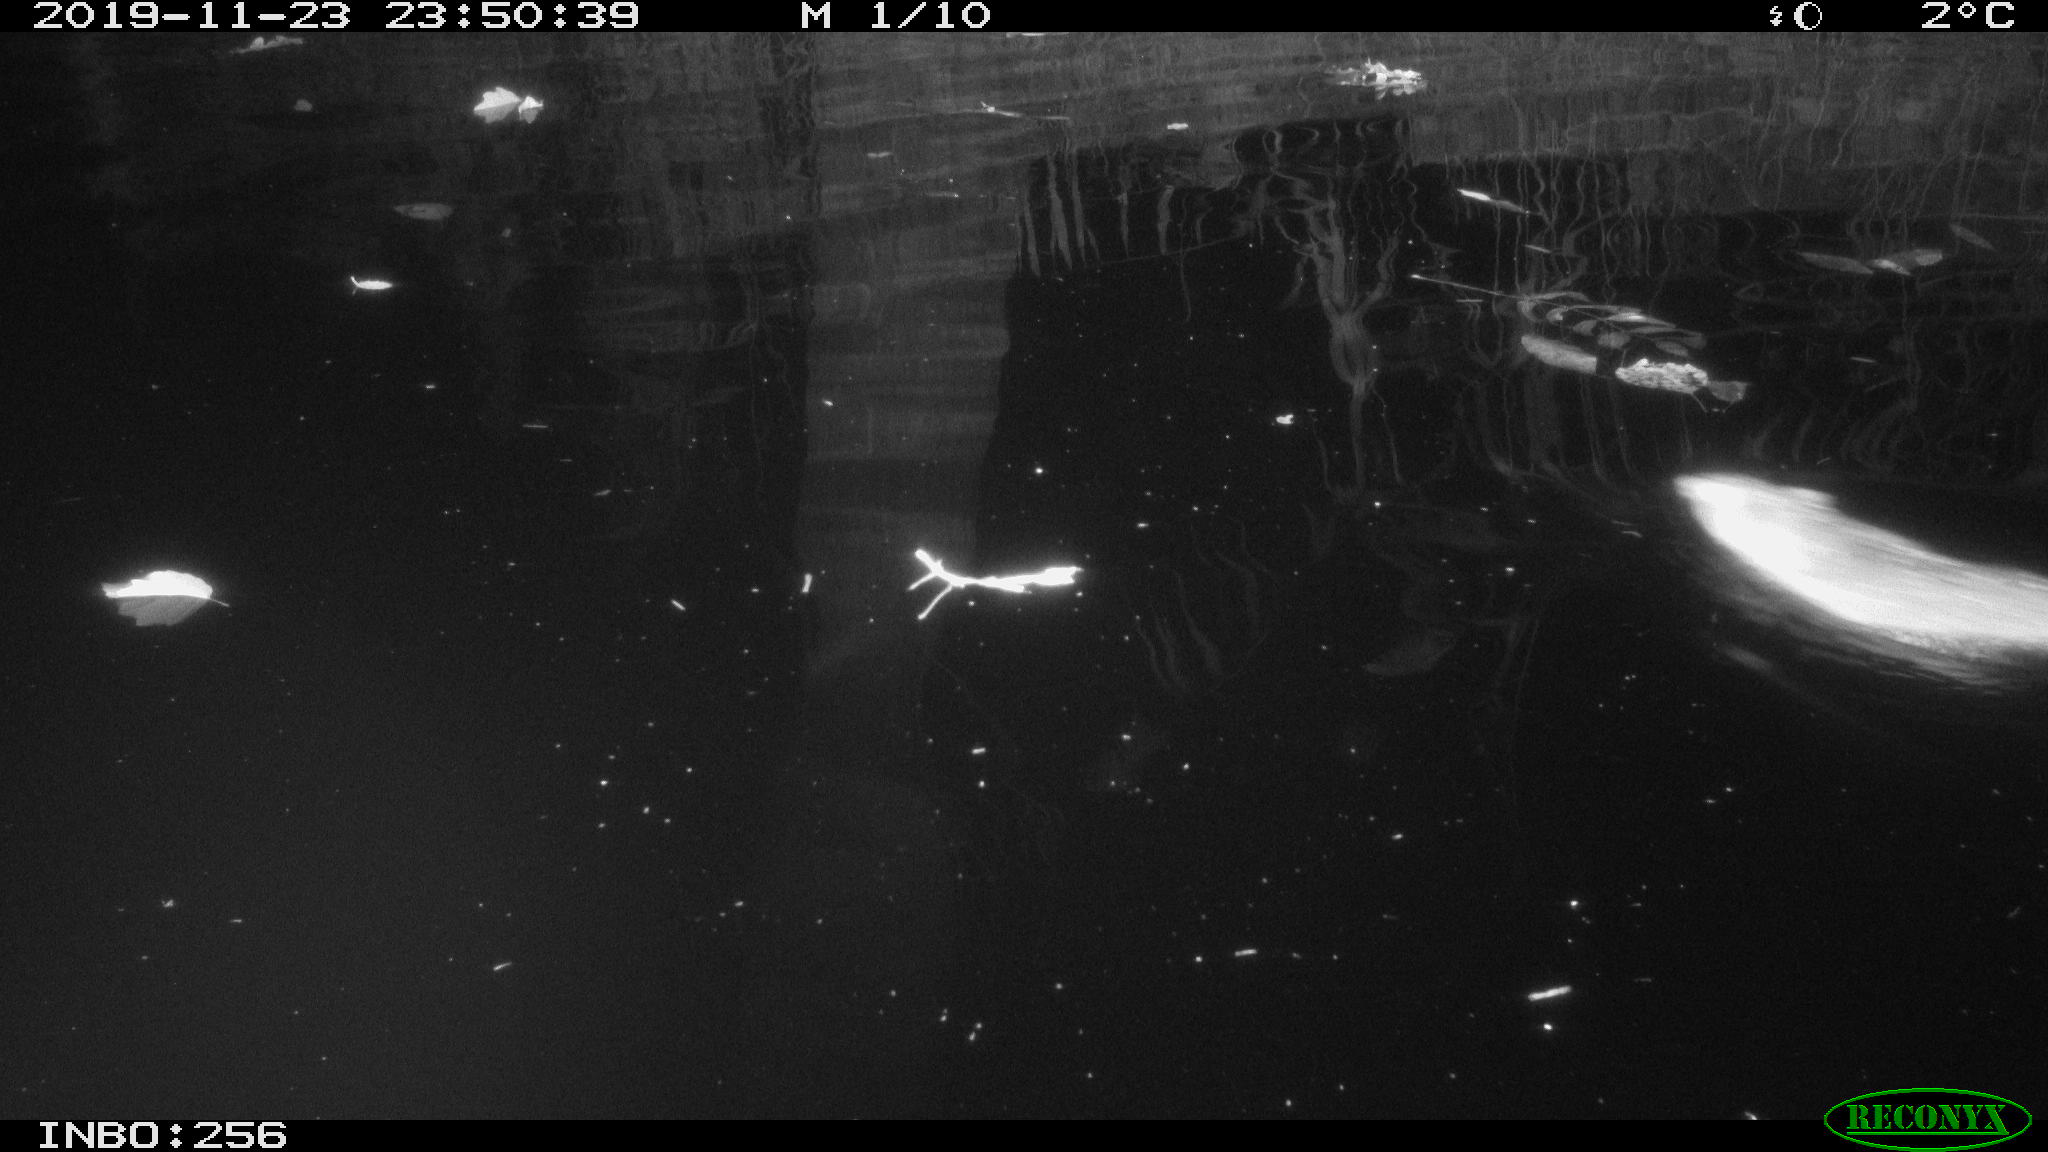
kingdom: Animalia
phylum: Chordata
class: Mammalia
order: Rodentia
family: Cricetidae
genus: Ondatra
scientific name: Ondatra zibethicus
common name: Muskrat
